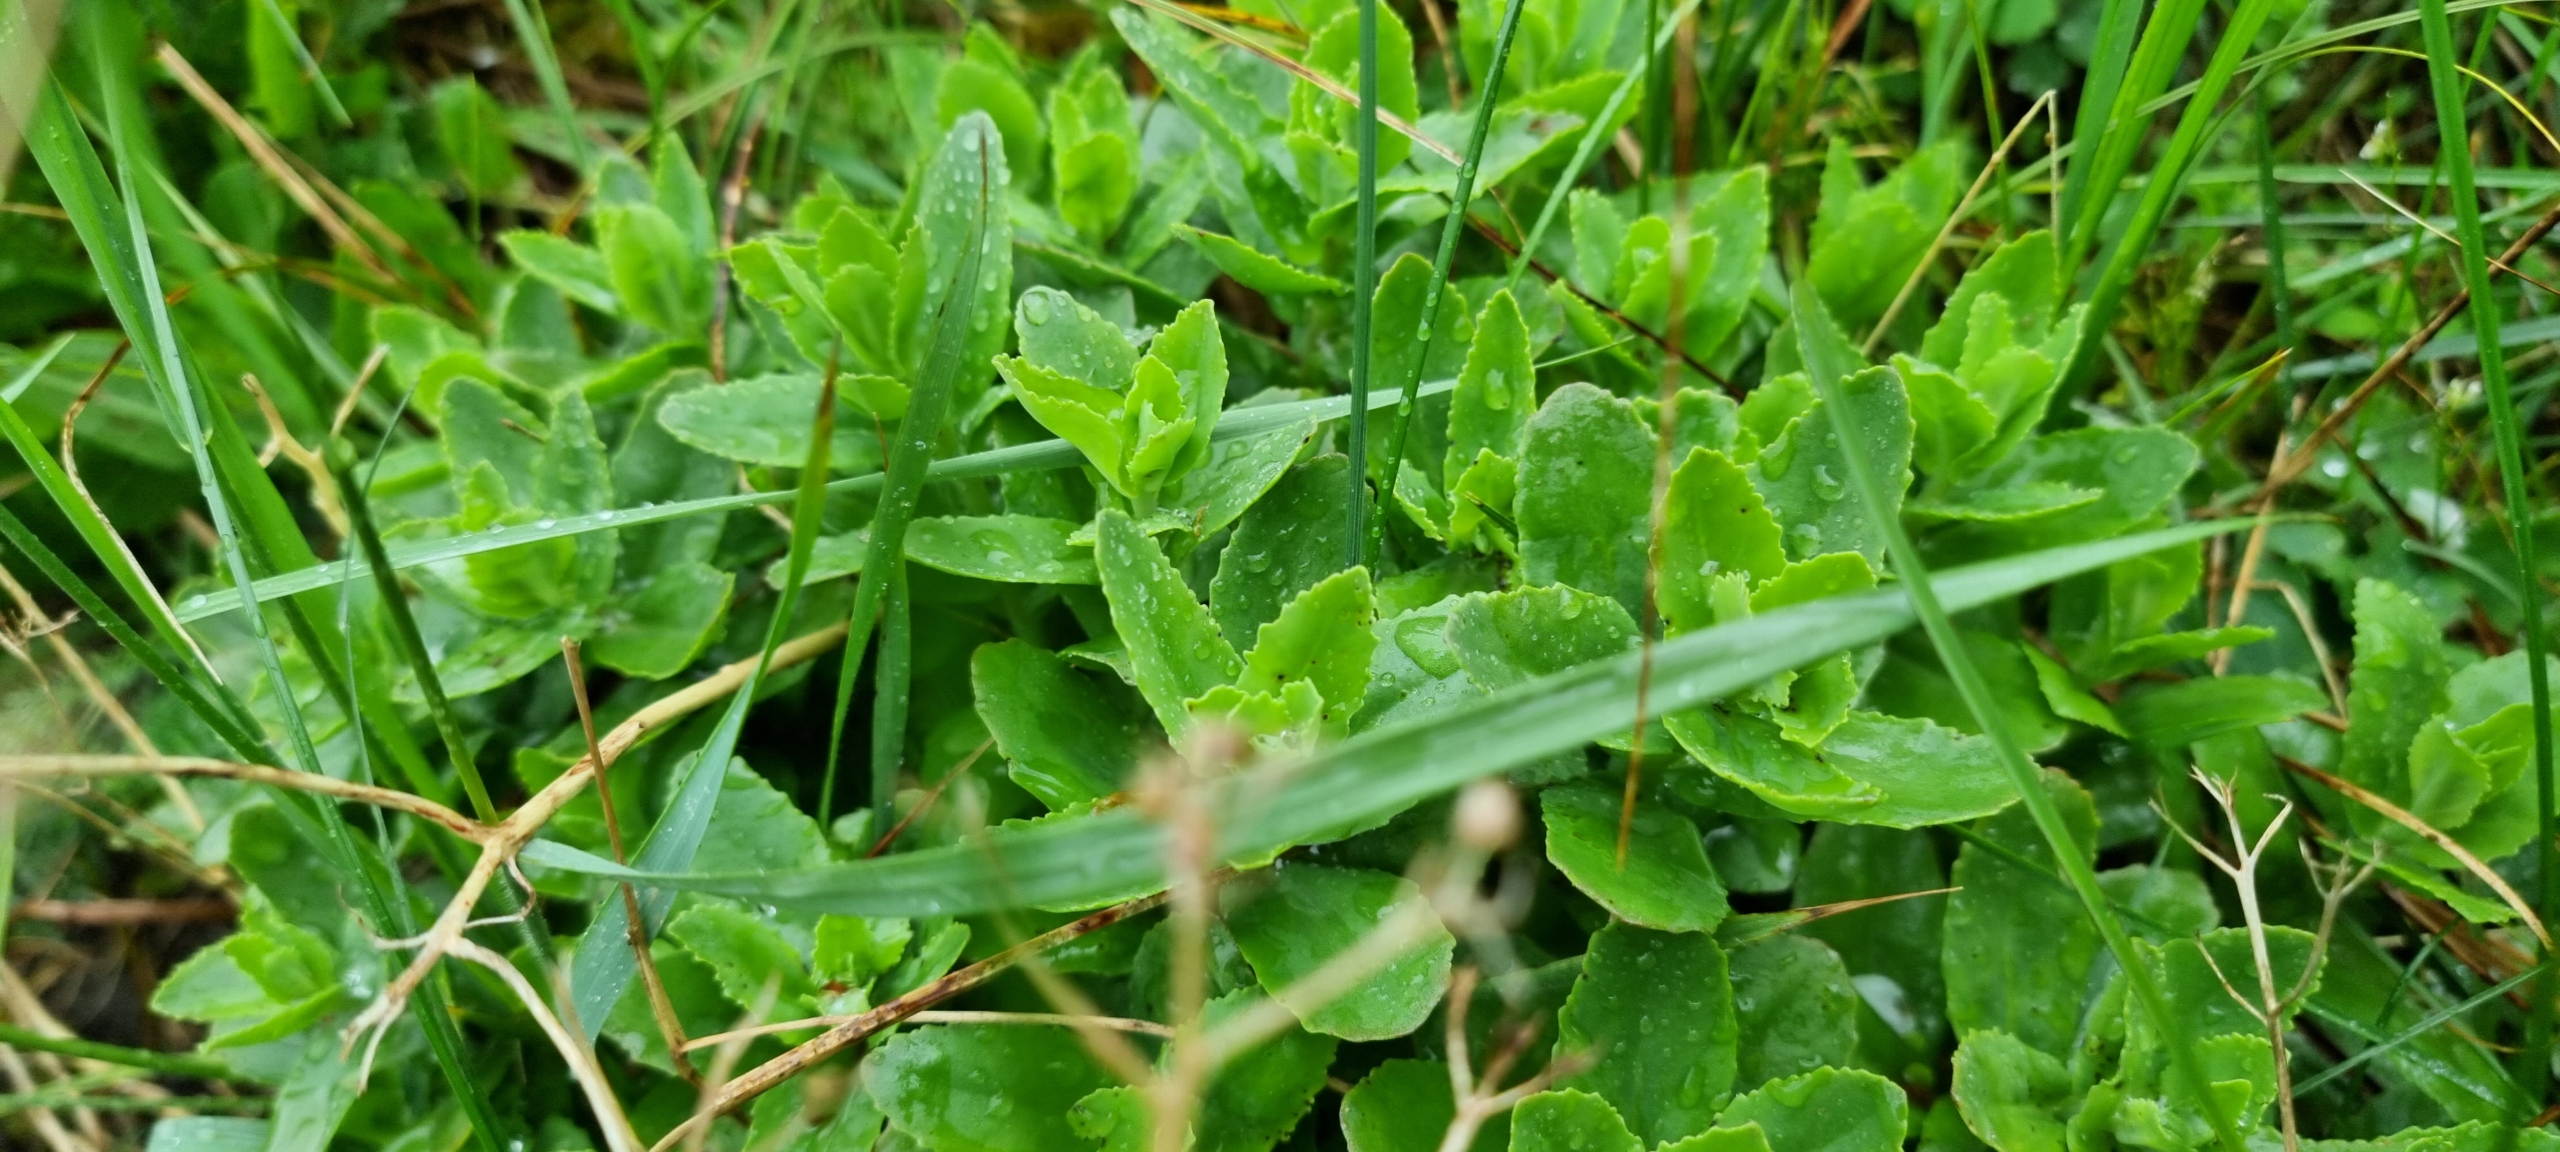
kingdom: Plantae
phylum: Tracheophyta
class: Magnoliopsida
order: Saxifragales
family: Crassulaceae
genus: Hylotelephium
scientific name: Hylotelephium telephium
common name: Sankthansurt
